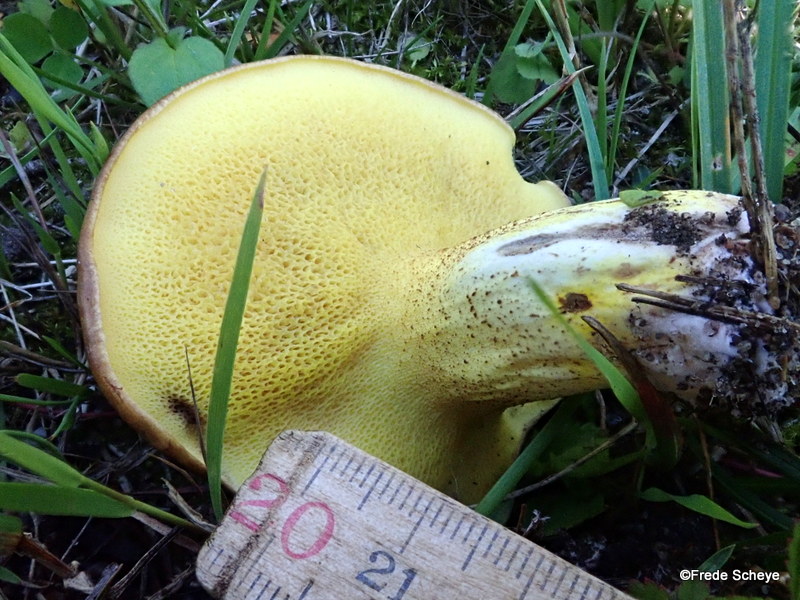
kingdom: Fungi
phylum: Basidiomycota
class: Agaricomycetes
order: Boletales
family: Suillaceae
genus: Suillus
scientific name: Suillus granulatus
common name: kornet slimrørhat
